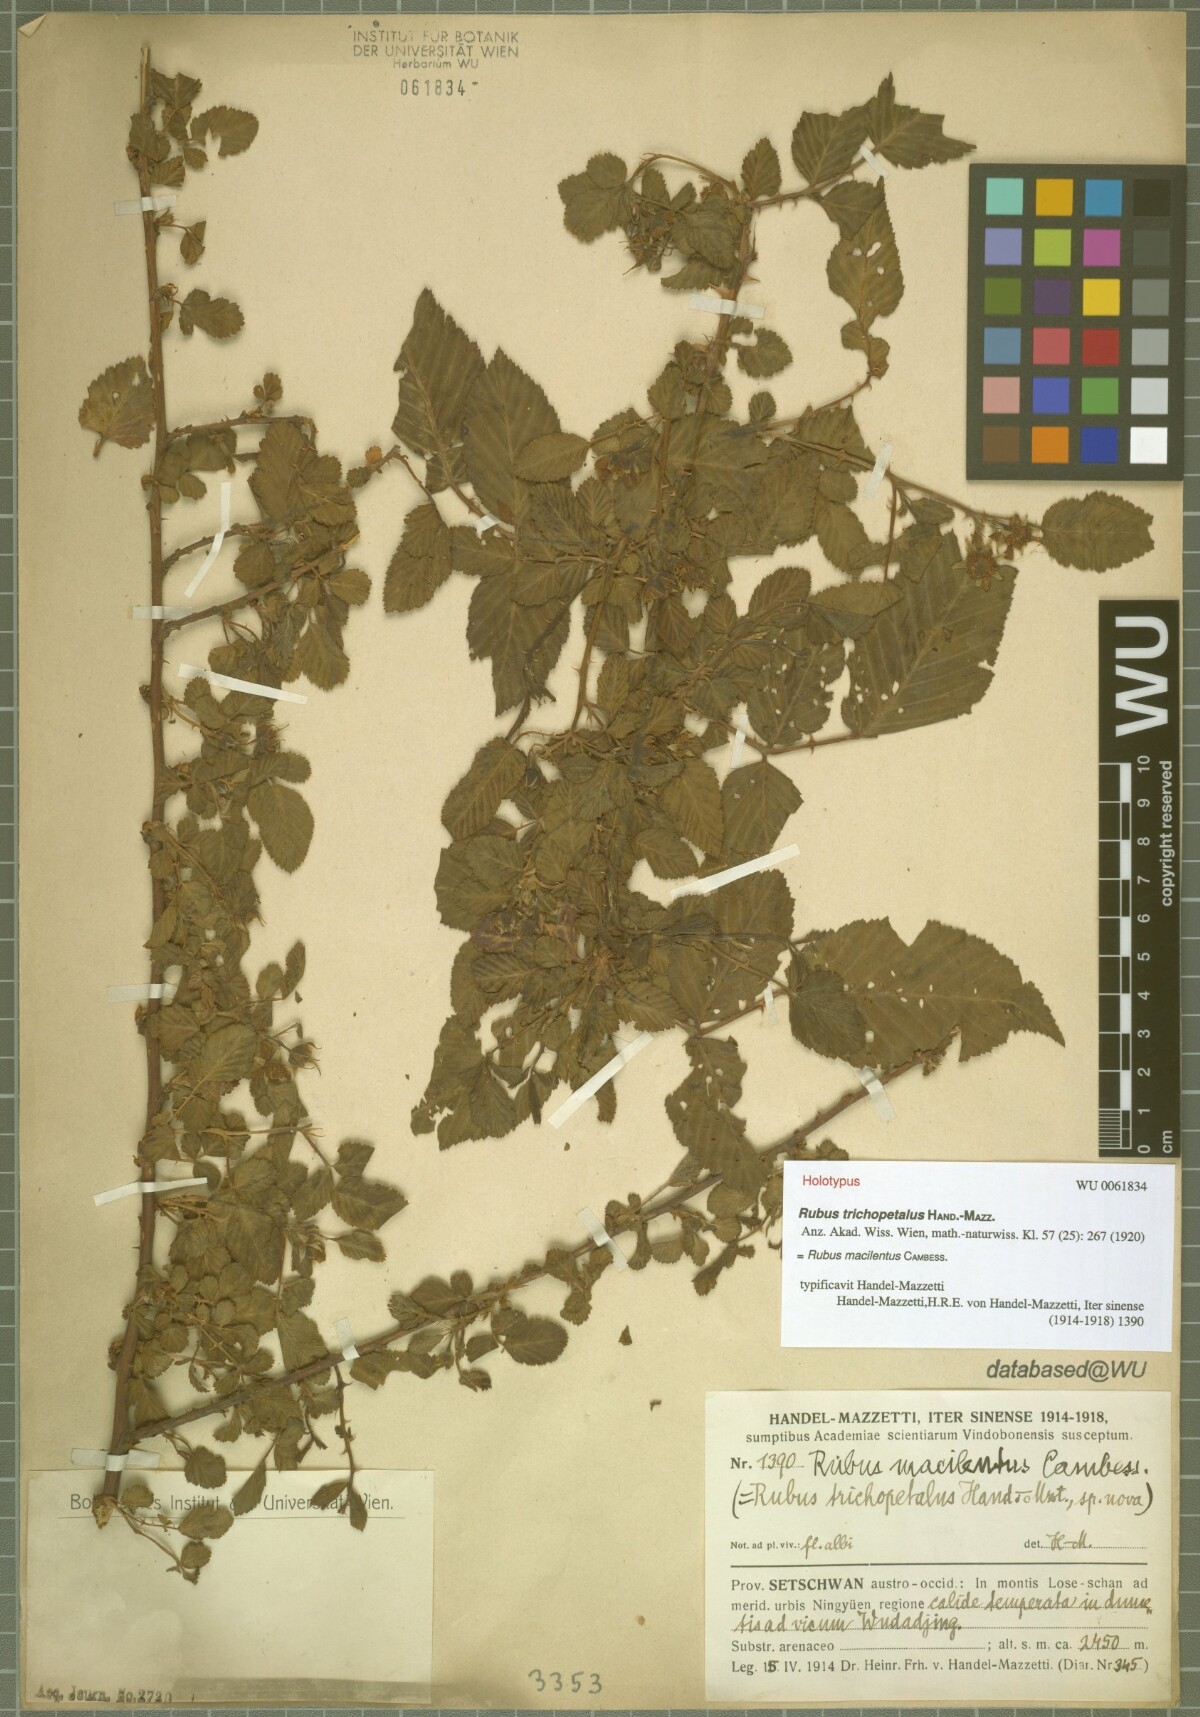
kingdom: Plantae
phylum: Tracheophyta
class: Magnoliopsida
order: Rosales
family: Rosaceae
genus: Rubus
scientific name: Rubus macilentus
